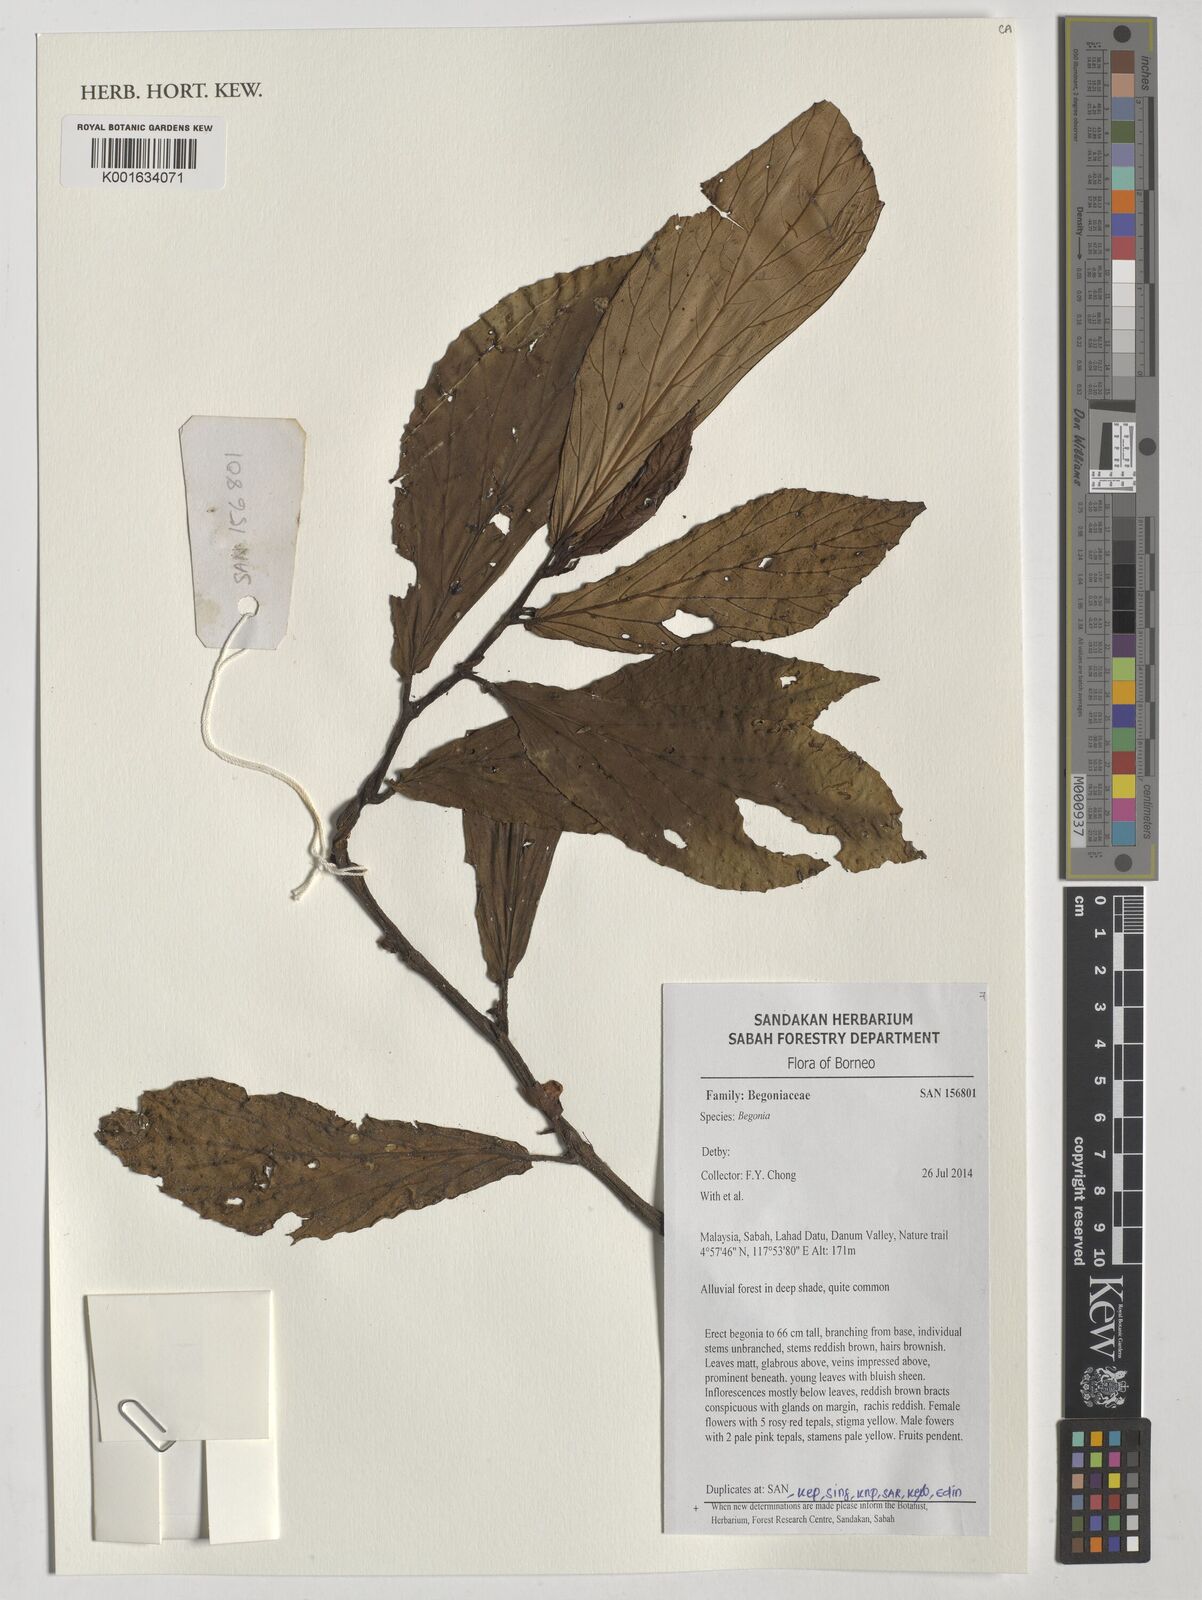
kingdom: Plantae
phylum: Tracheophyta
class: Magnoliopsida
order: Cucurbitales
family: Begoniaceae
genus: Begonia
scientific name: Begonia
